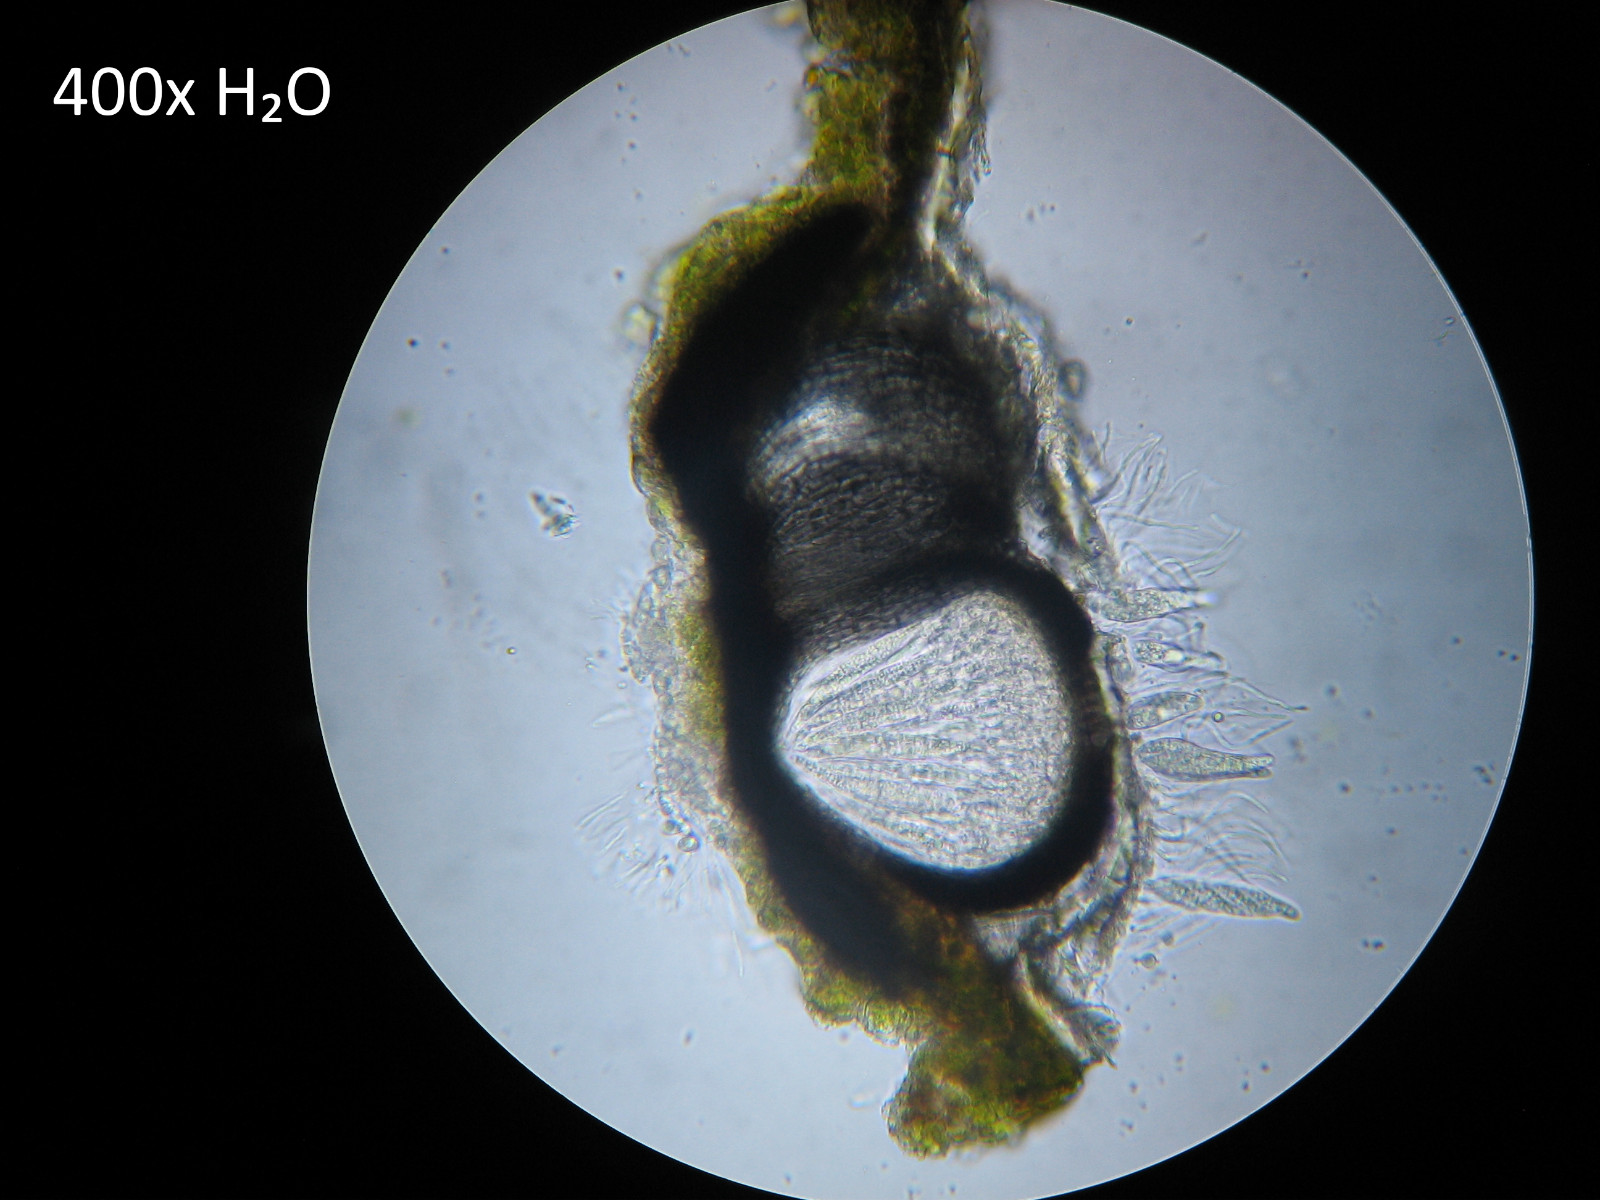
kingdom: Fungi
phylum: Ascomycota
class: Lecanoromycetes
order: Ostropales
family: Porinaceae
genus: Pseudosagedia
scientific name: Pseudosagedia aenea
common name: grønlig porina
